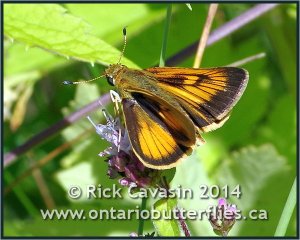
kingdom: Animalia
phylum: Arthropoda
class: Insecta
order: Lepidoptera
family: Hesperiidae
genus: Atrytone
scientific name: Atrytone delaware
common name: Delaware Skipper
